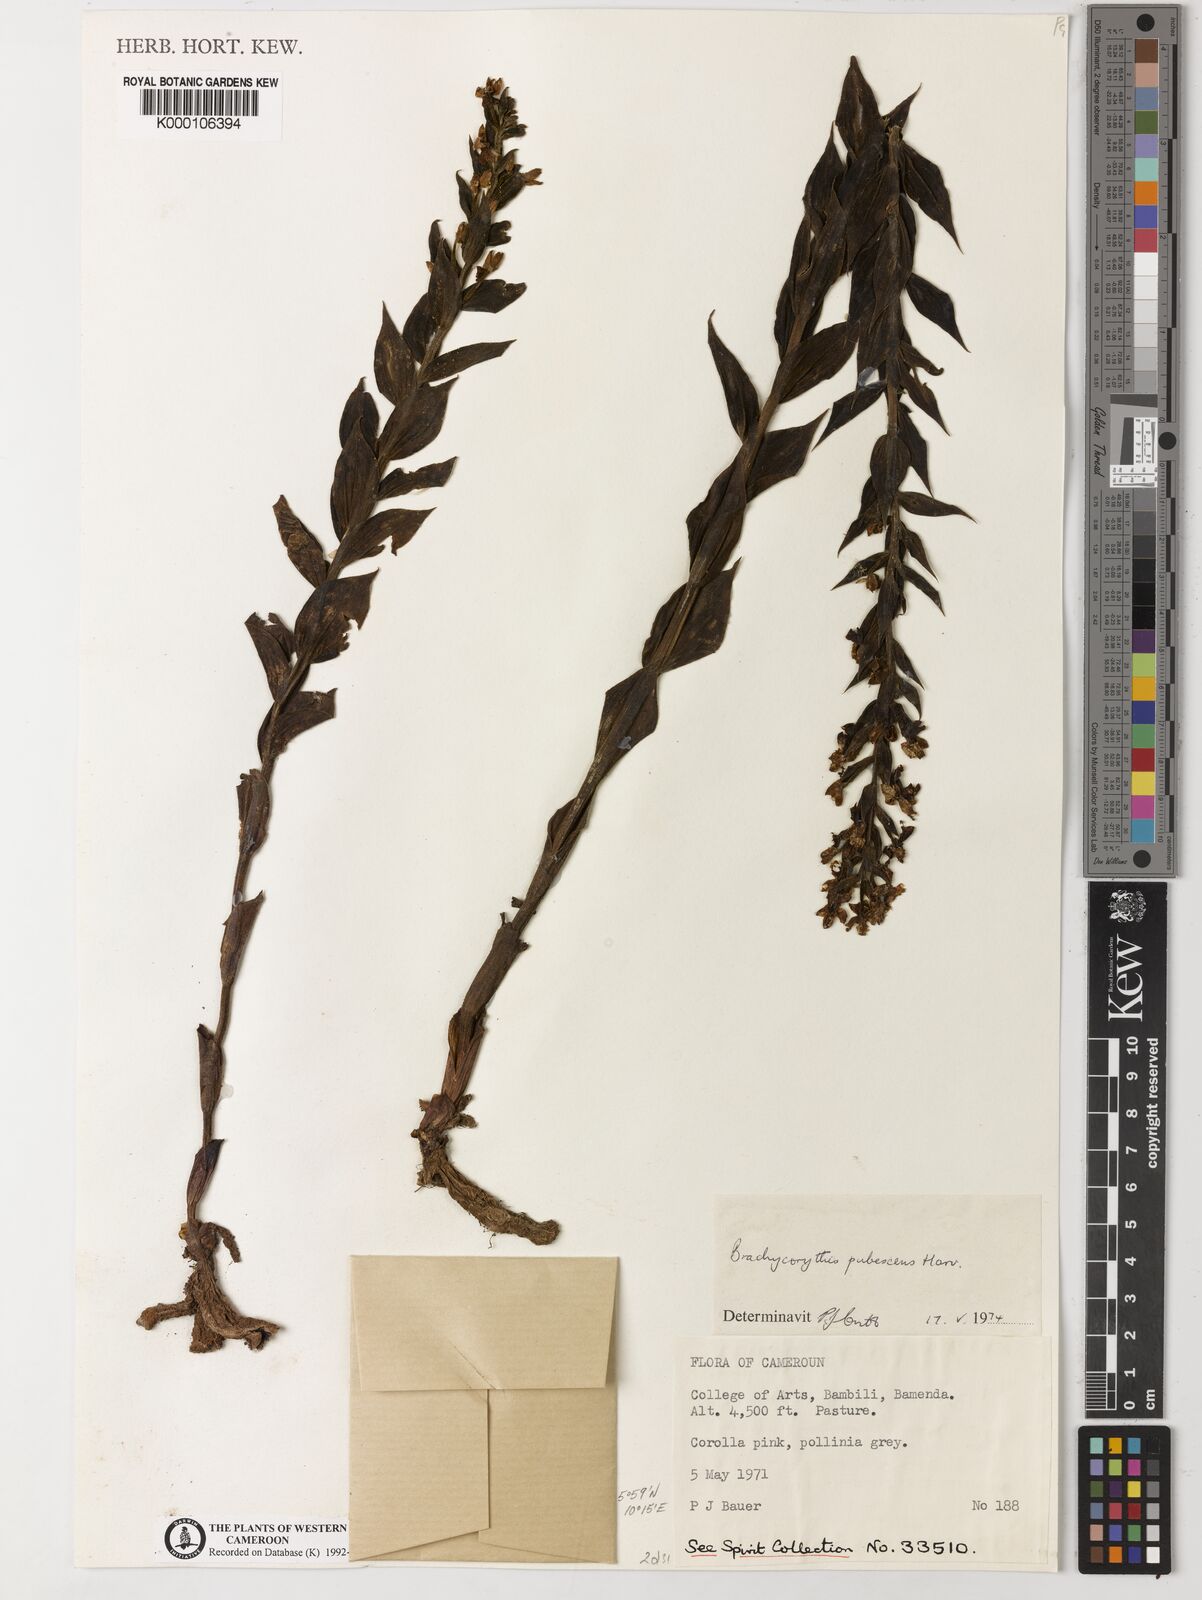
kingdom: Plantae
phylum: Tracheophyta
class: Liliopsida
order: Asparagales
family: Orchidaceae
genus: Brachycorythis
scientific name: Brachycorythis pubescens
